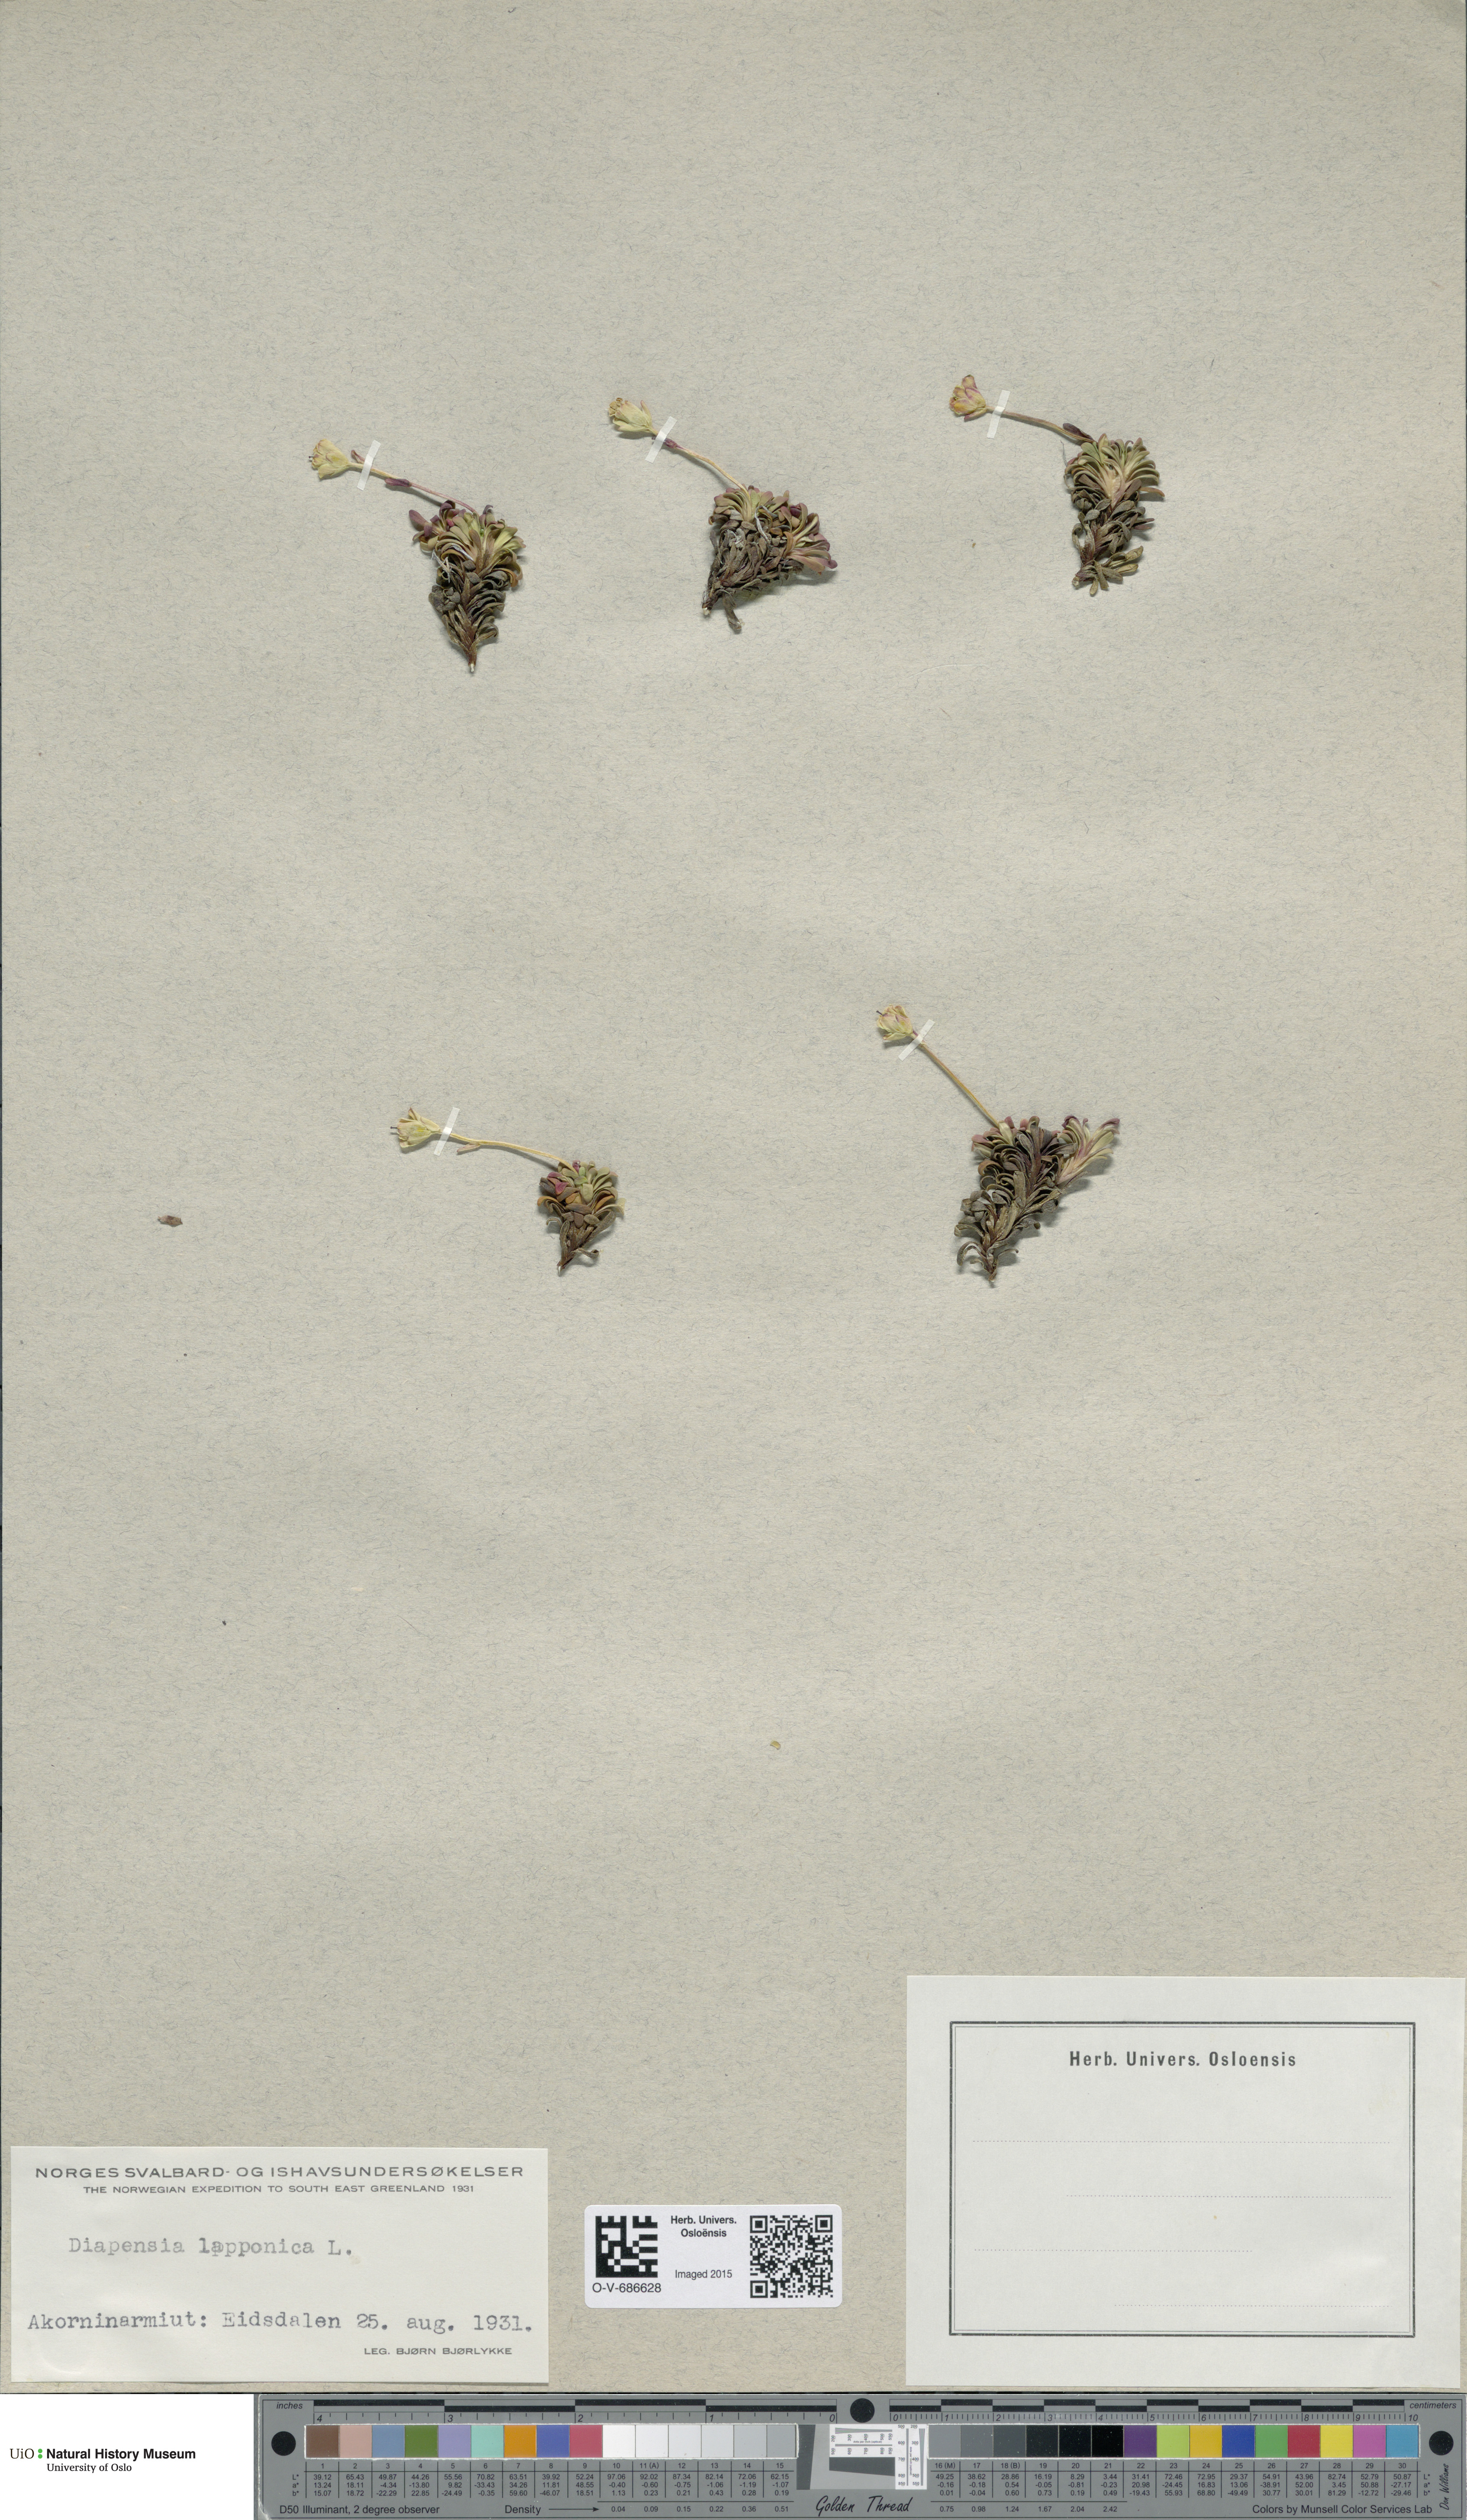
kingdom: Plantae
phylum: Tracheophyta
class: Magnoliopsida
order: Ericales
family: Diapensiaceae
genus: Diapensia
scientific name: Diapensia lapponica
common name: Diapensia
